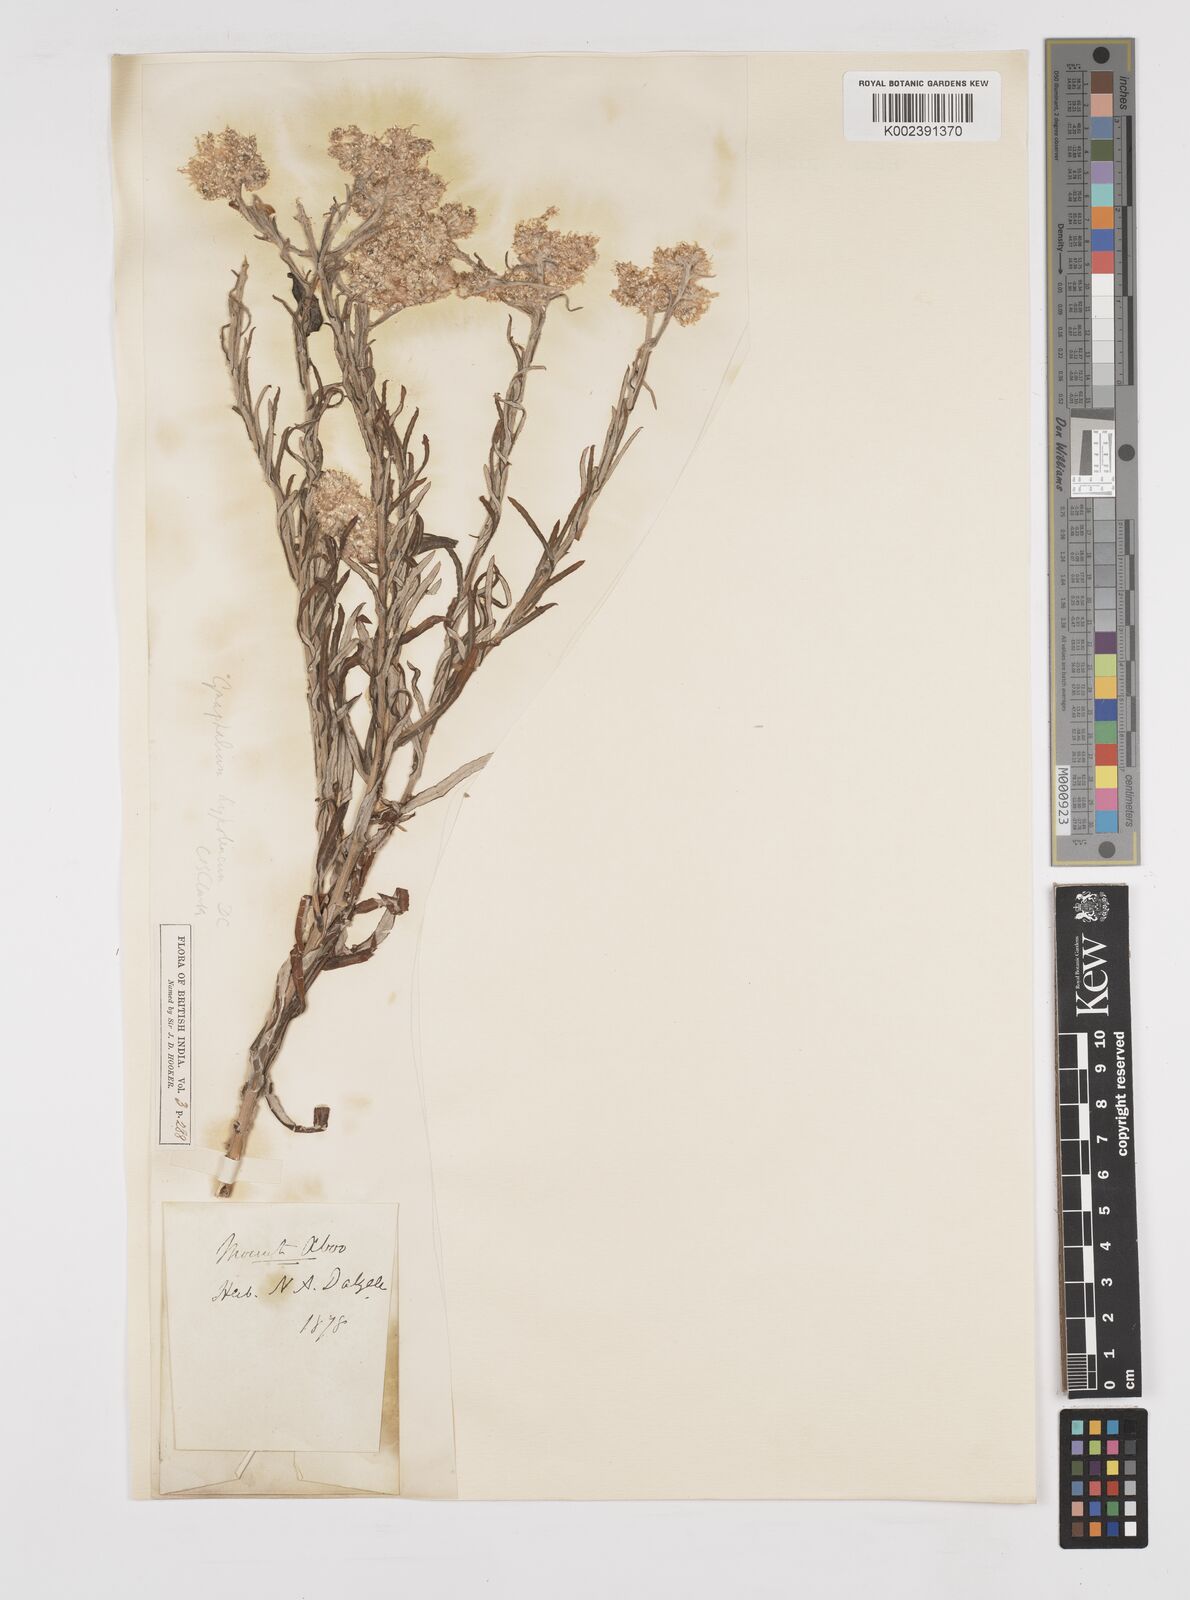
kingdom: Plantae
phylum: Tracheophyta
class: Magnoliopsida
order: Asterales
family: Asteraceae
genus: Pseudognaphalium
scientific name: Pseudognaphalium hypoleucum
